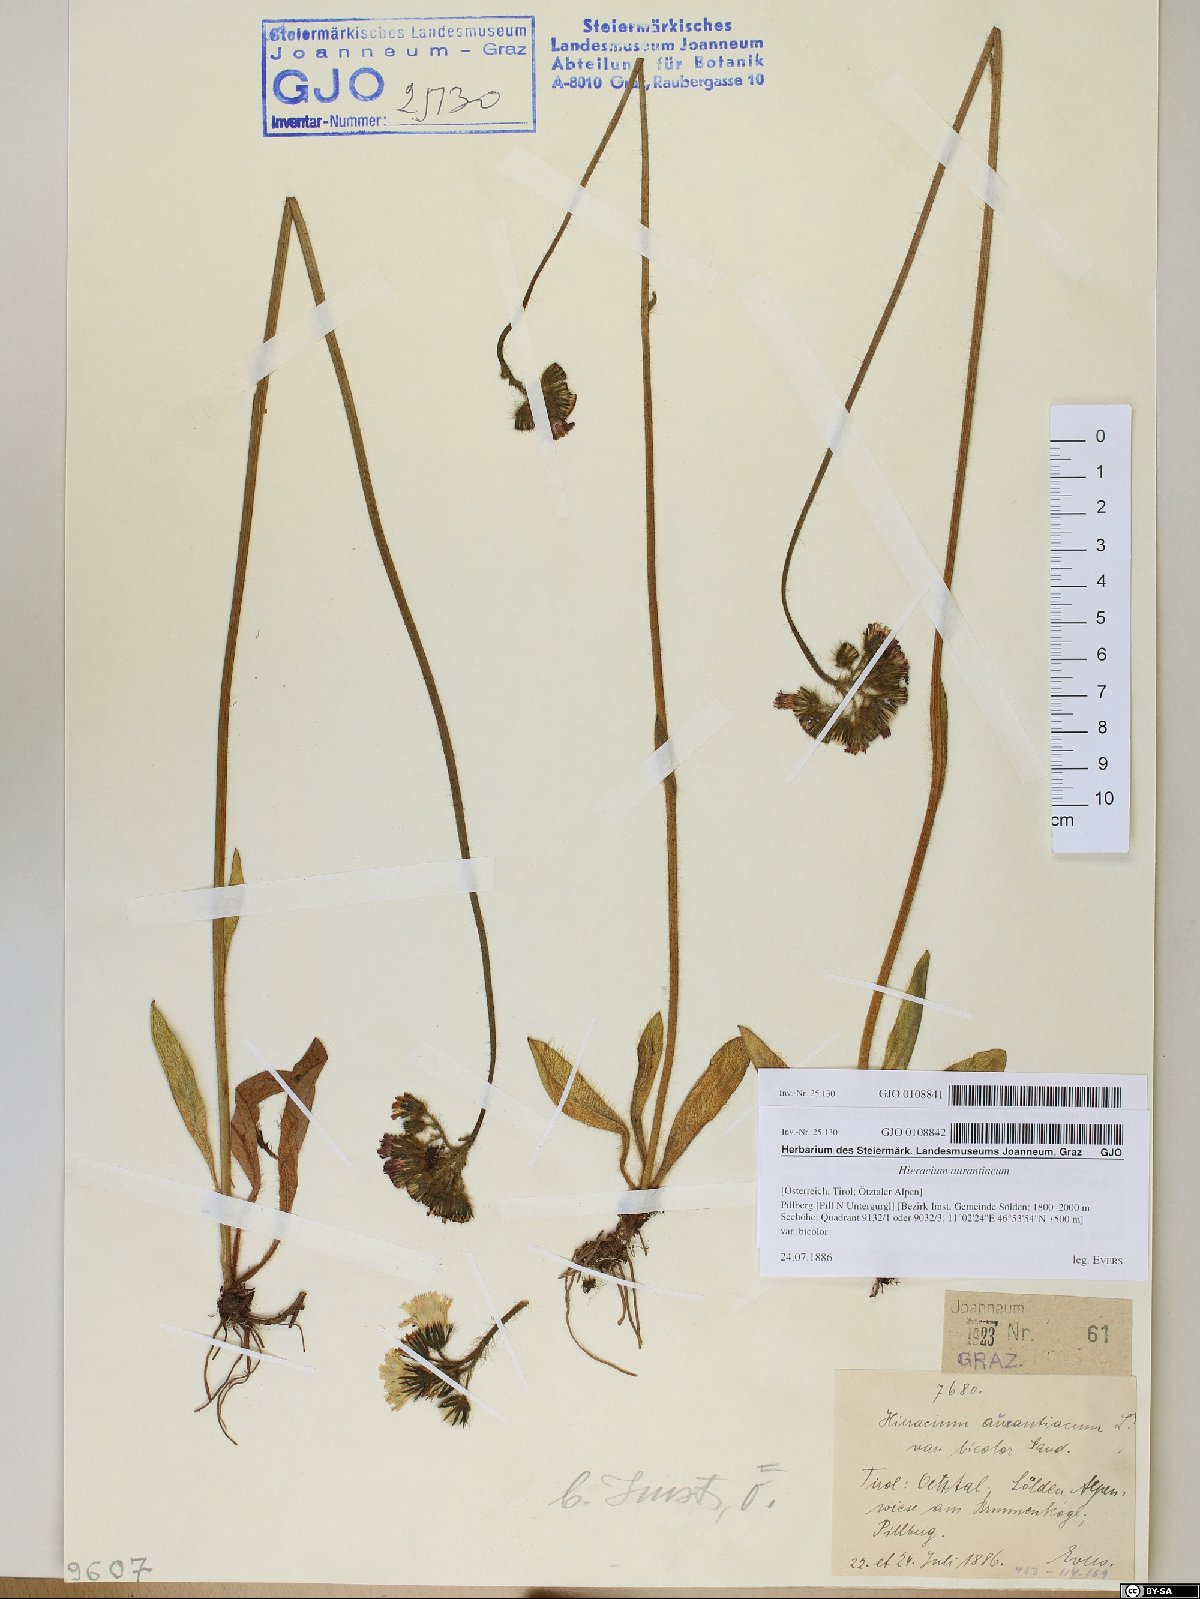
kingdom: Plantae
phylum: Tracheophyta
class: Magnoliopsida
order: Asterales
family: Asteraceae
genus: Pilosella
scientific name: Pilosella aurantiaca
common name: Fox-and-cubs
